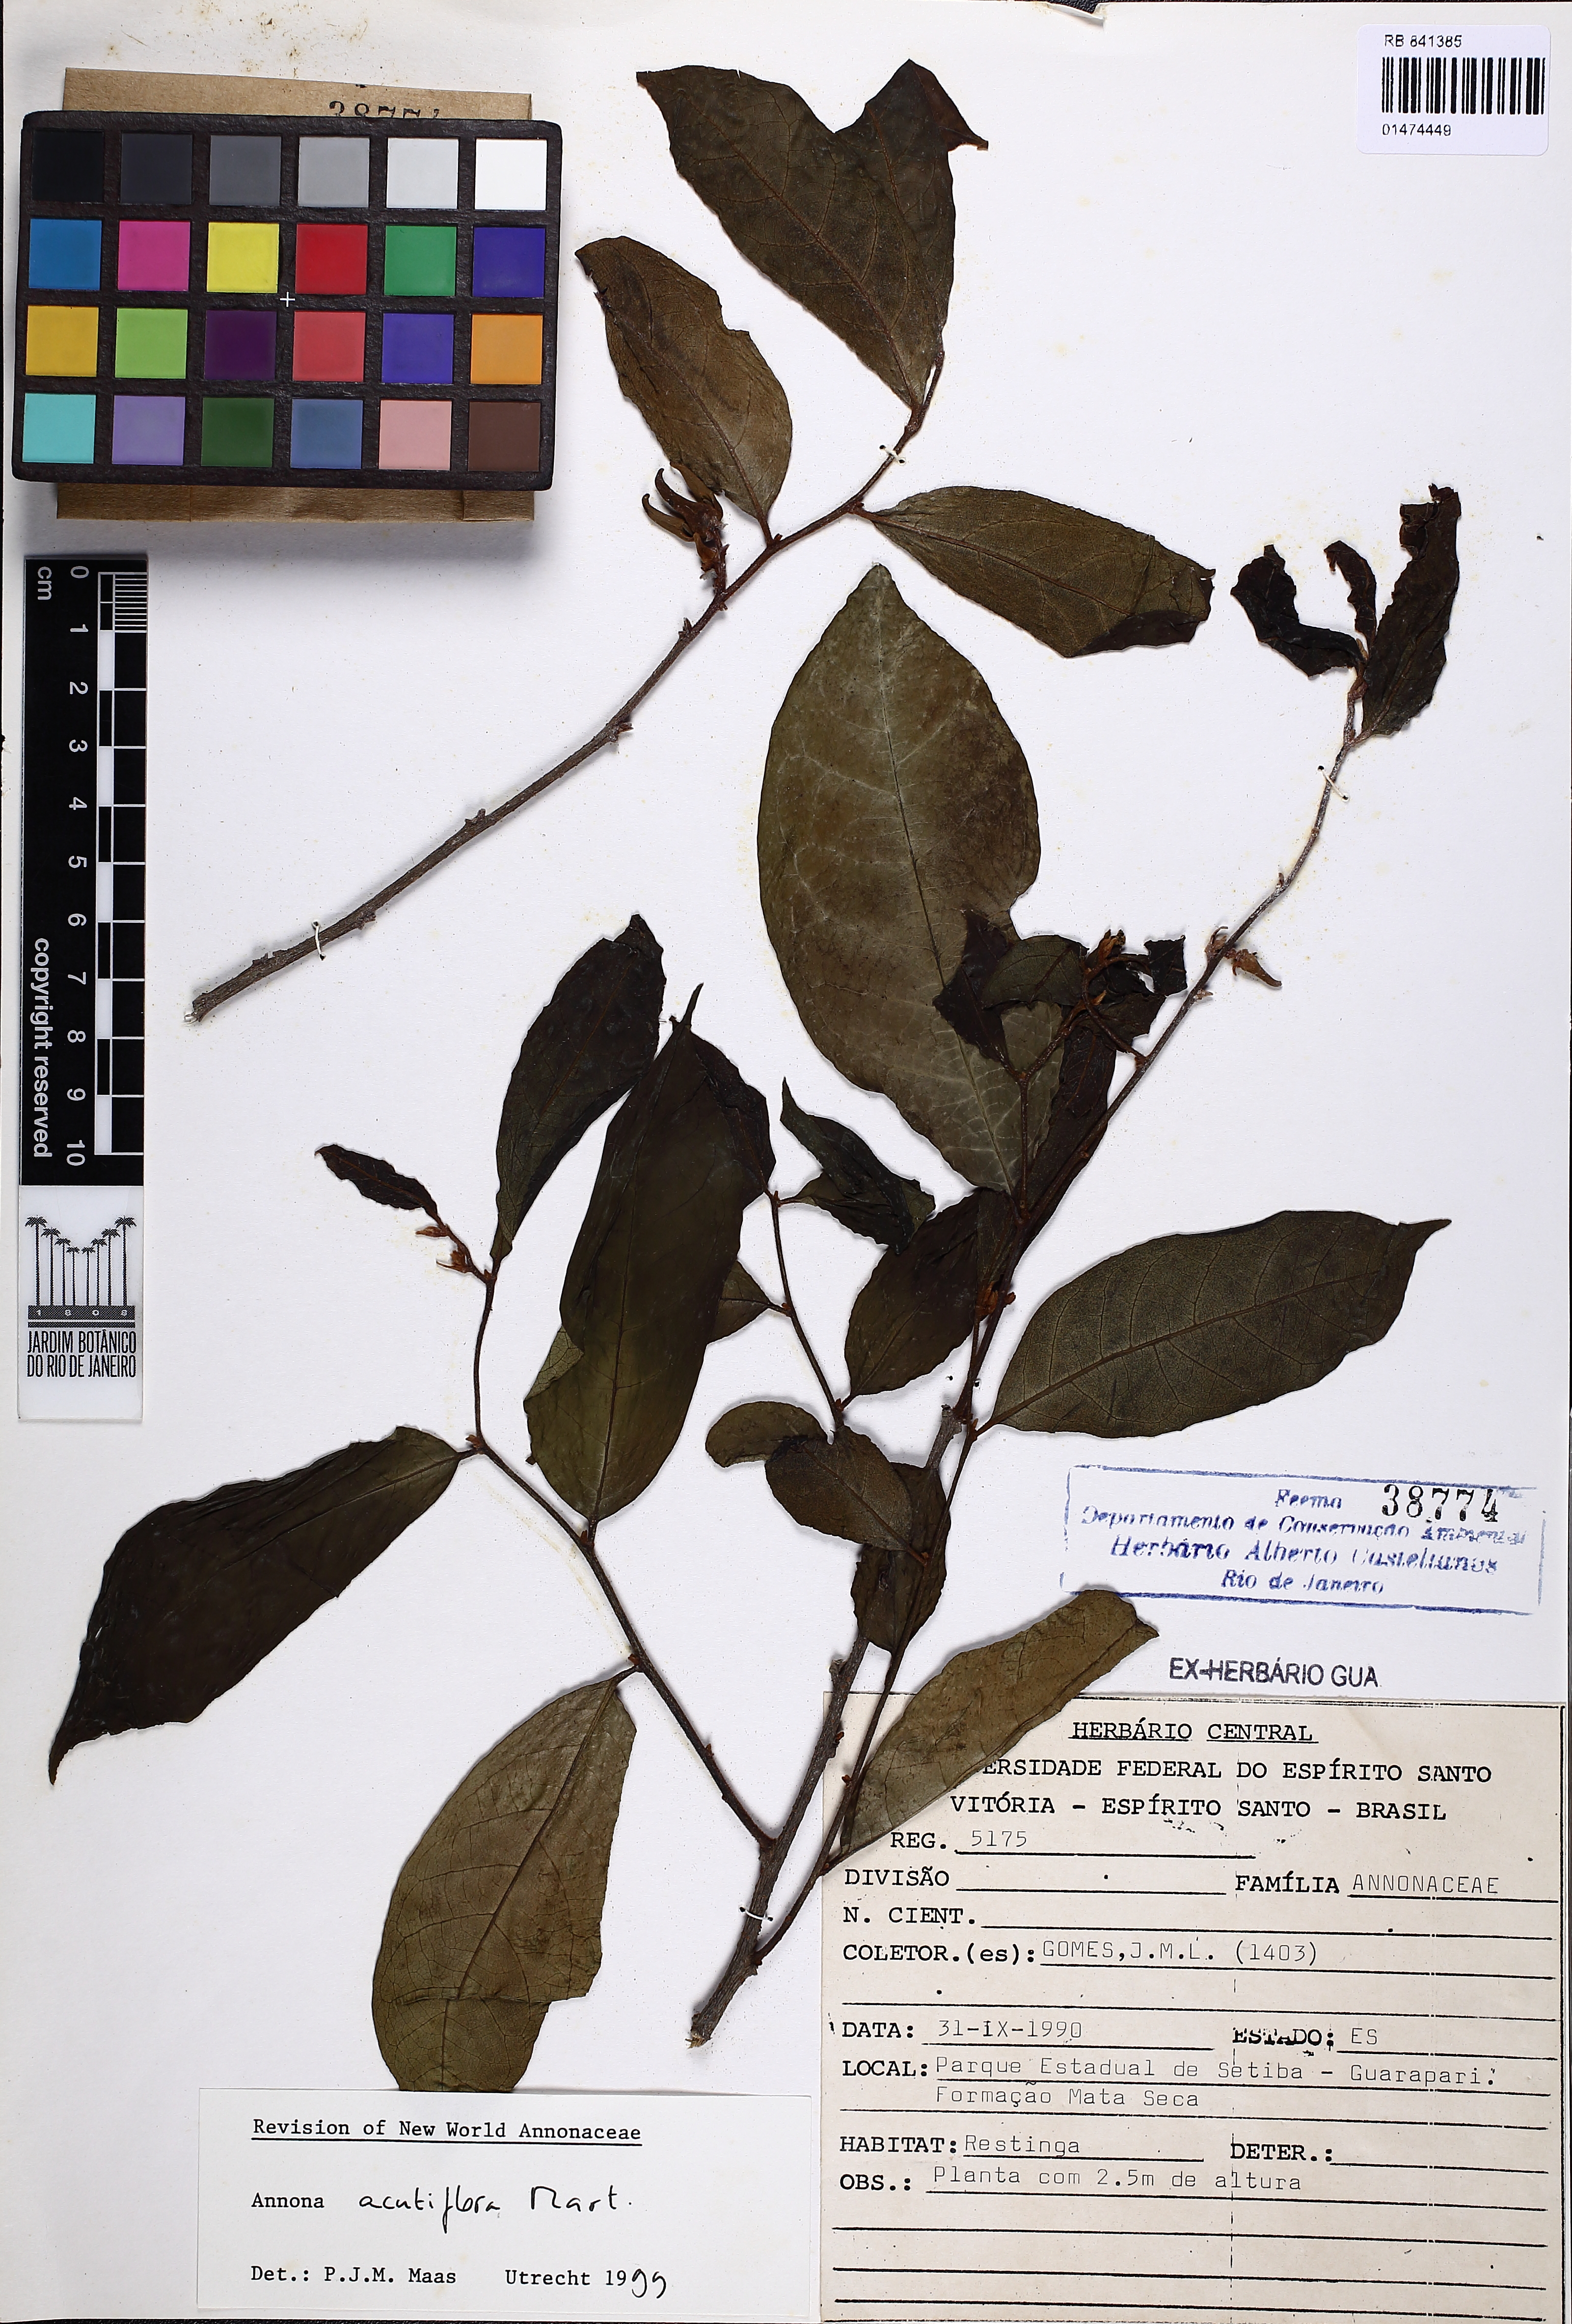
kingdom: Plantae
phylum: Tracheophyta
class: Magnoliopsida
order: Magnoliales
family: Annonaceae
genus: Annona
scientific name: Annona acutiflora
